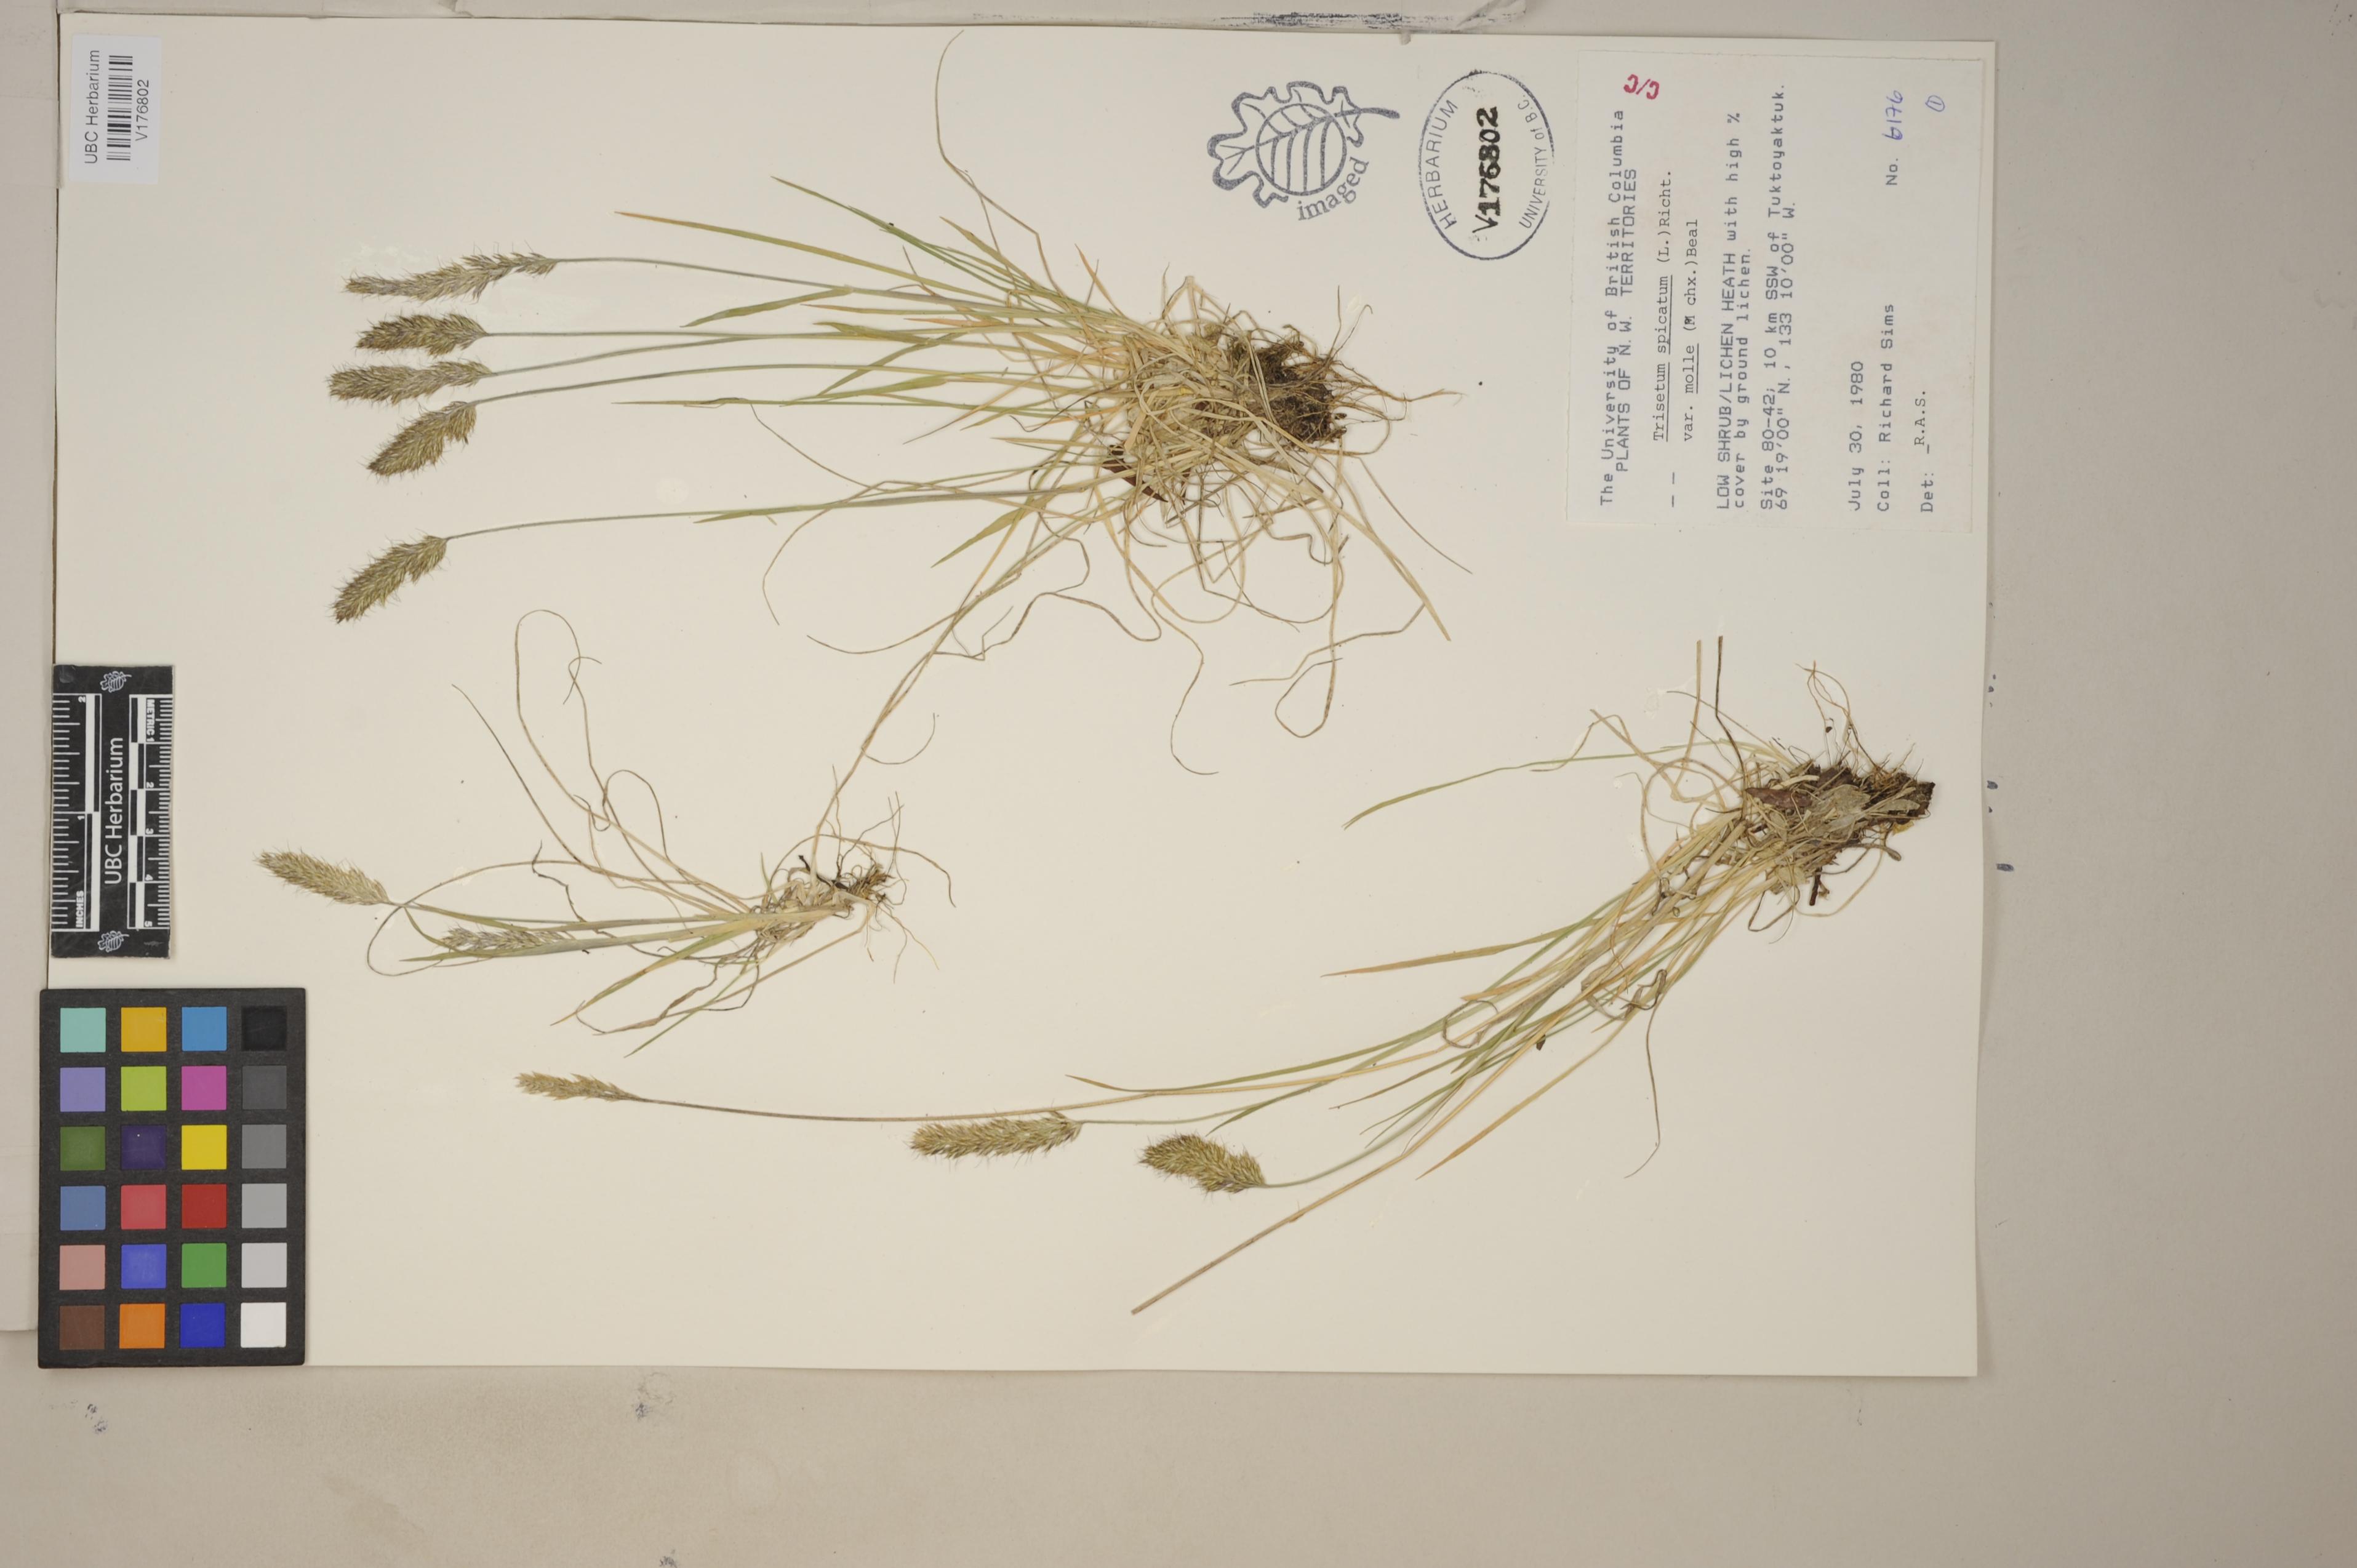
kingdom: Plantae
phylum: Tracheophyta
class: Liliopsida
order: Poales
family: Poaceae
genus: Koeleria
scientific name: Koeleria spicata
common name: Mountain trisetum
